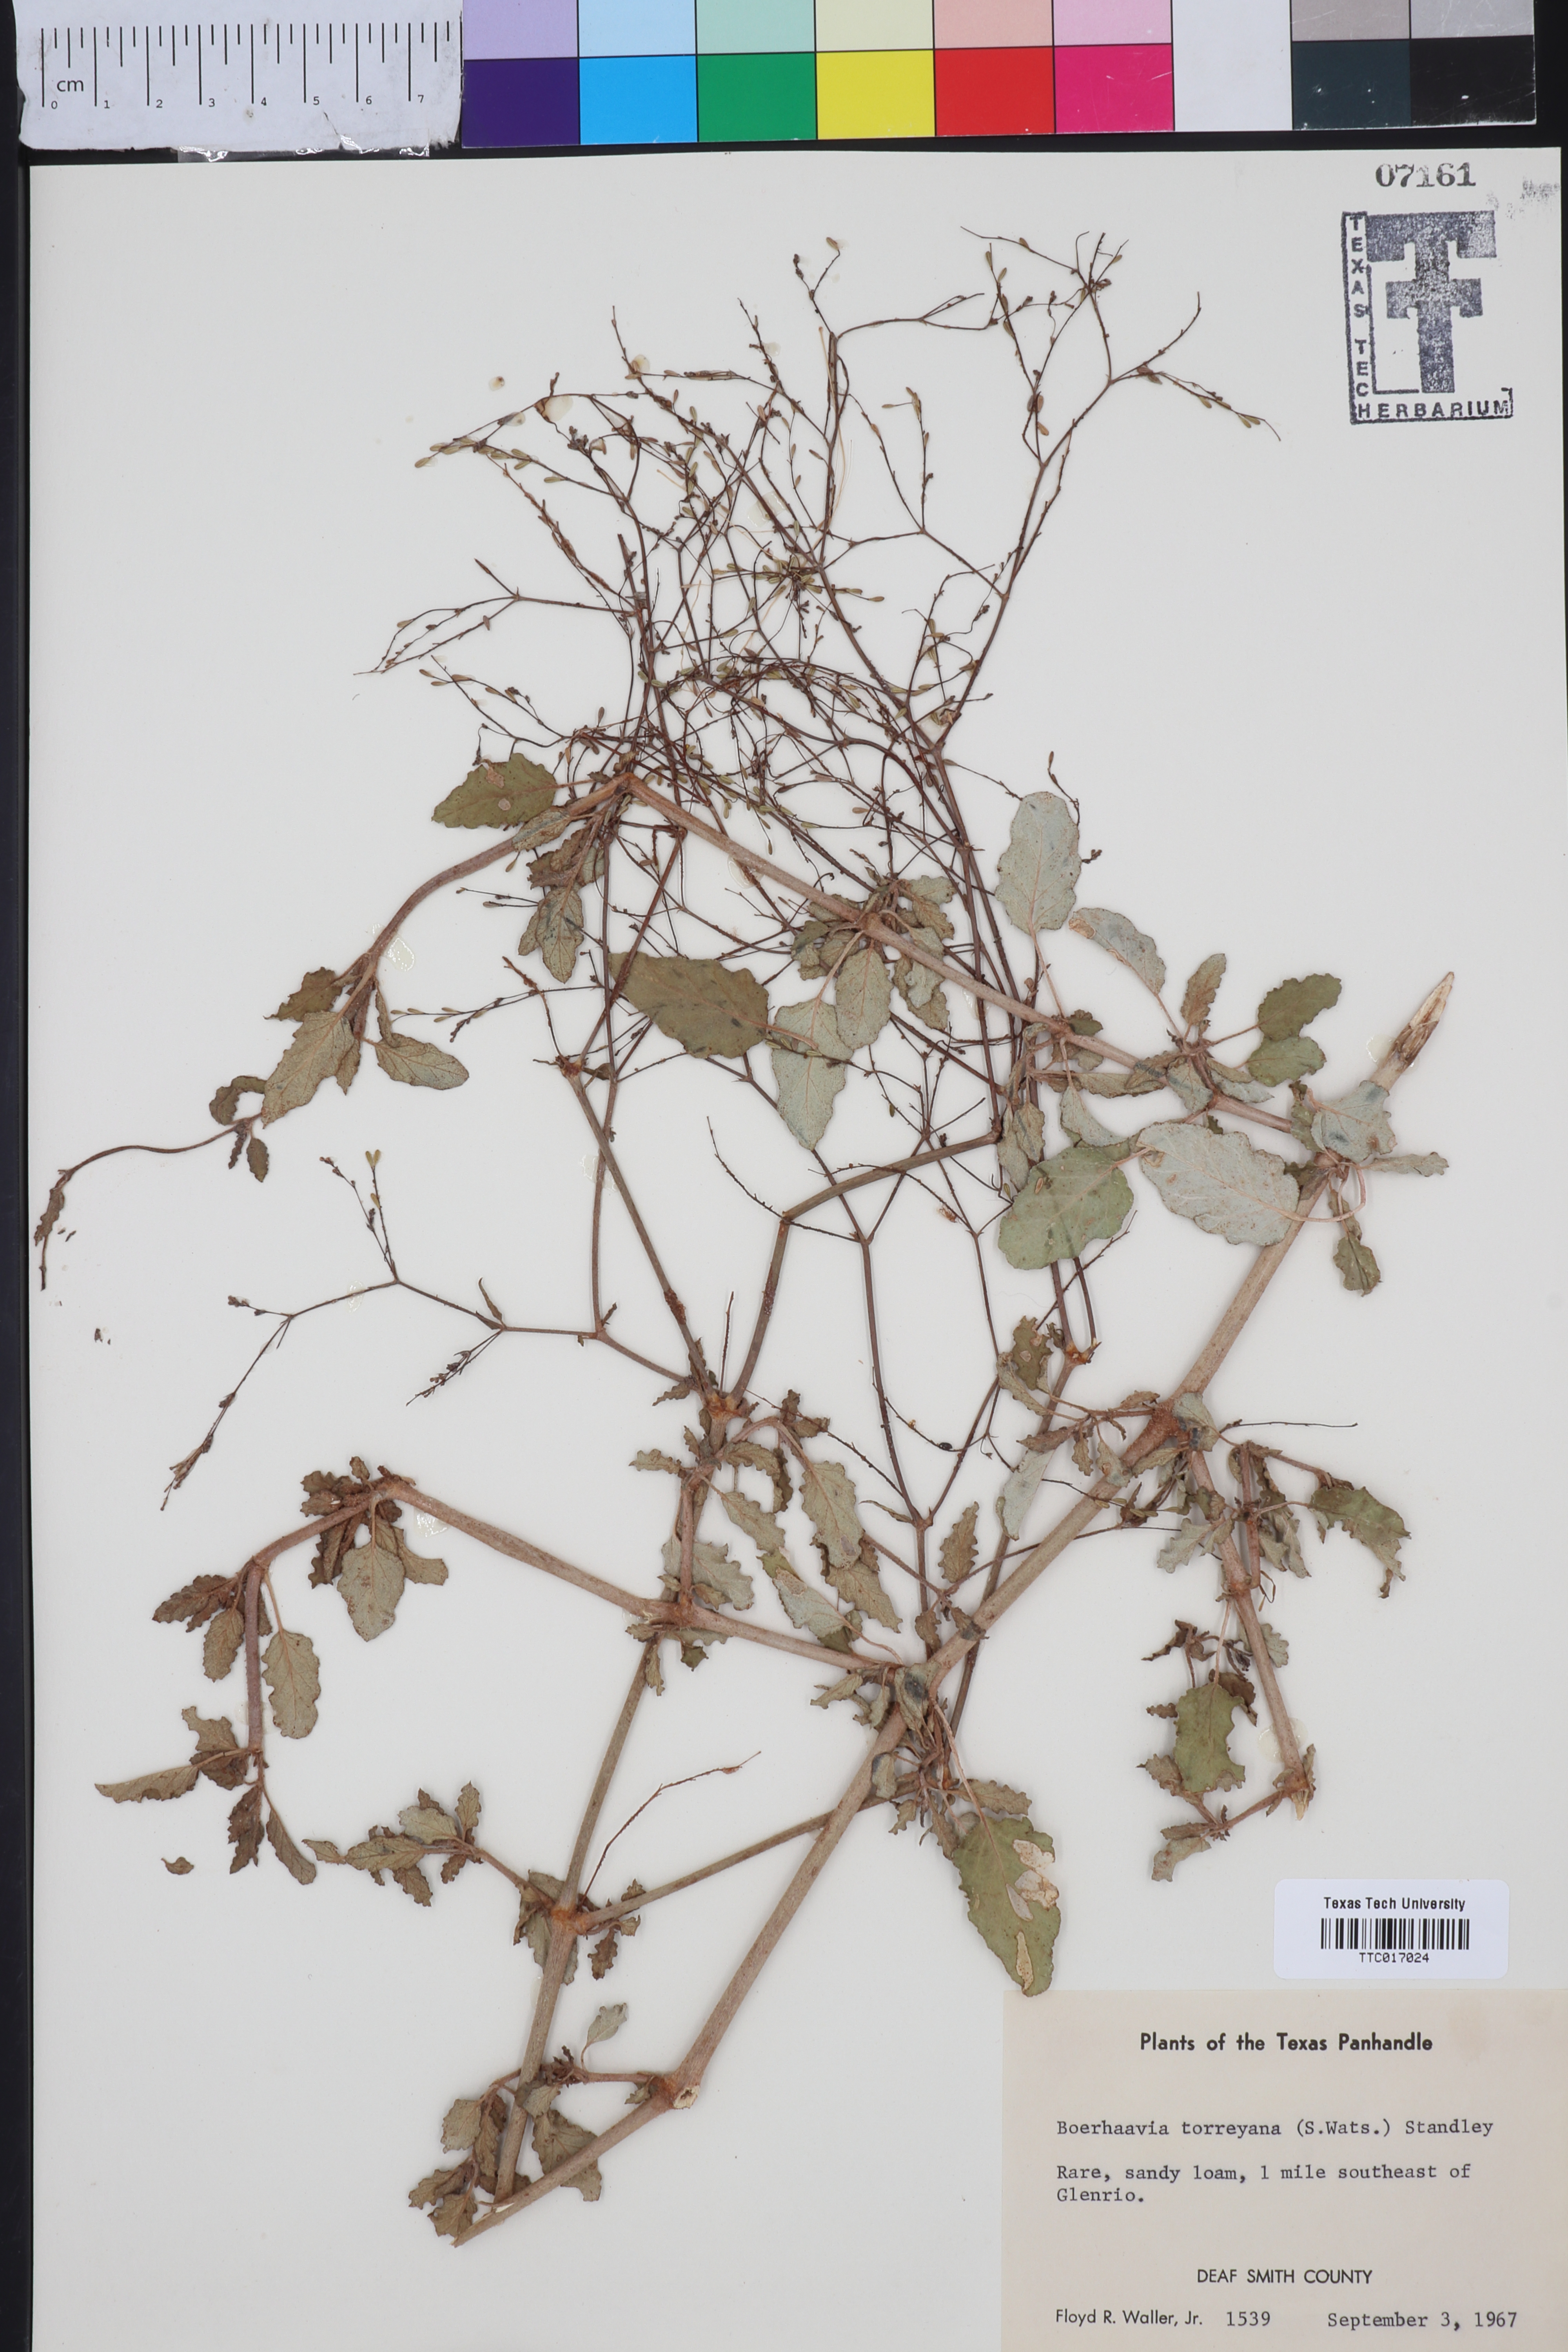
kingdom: Plantae
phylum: Tracheophyta
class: Magnoliopsida
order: Caryophyllales
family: Nyctaginaceae
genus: Boerhavia
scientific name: Boerhavia torreyana
